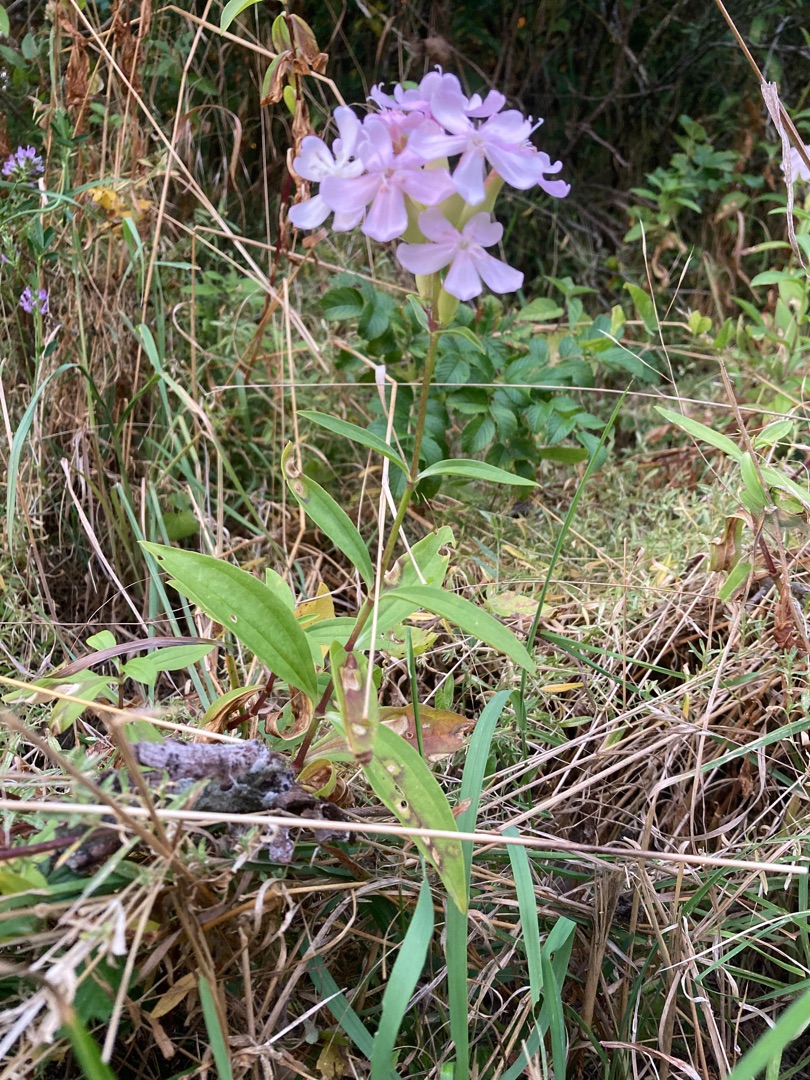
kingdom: Plantae
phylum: Tracheophyta
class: Magnoliopsida
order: Caryophyllales
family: Caryophyllaceae
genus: Saponaria
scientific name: Saponaria officinalis
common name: Sæbeurt
